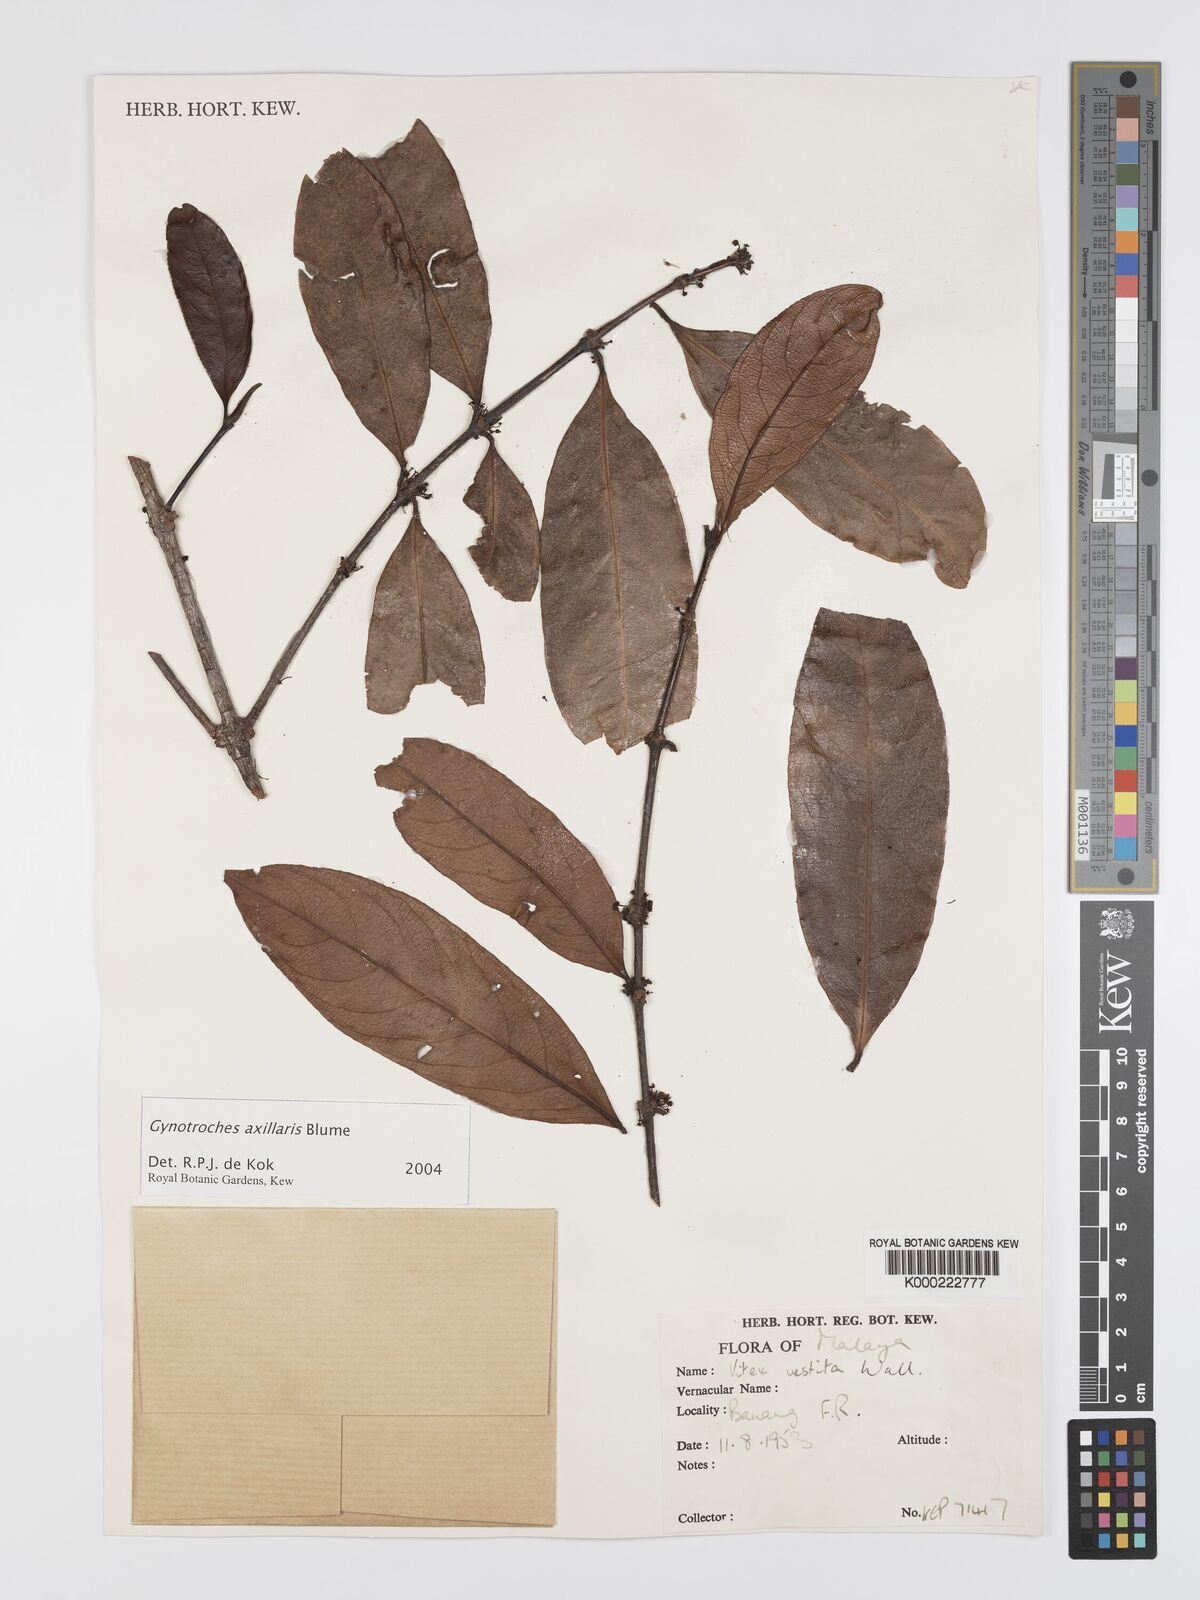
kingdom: Plantae
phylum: Tracheophyta
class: Magnoliopsida
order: Malpighiales
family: Rhizophoraceae
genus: Gynotroches
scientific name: Gynotroches axillaris
